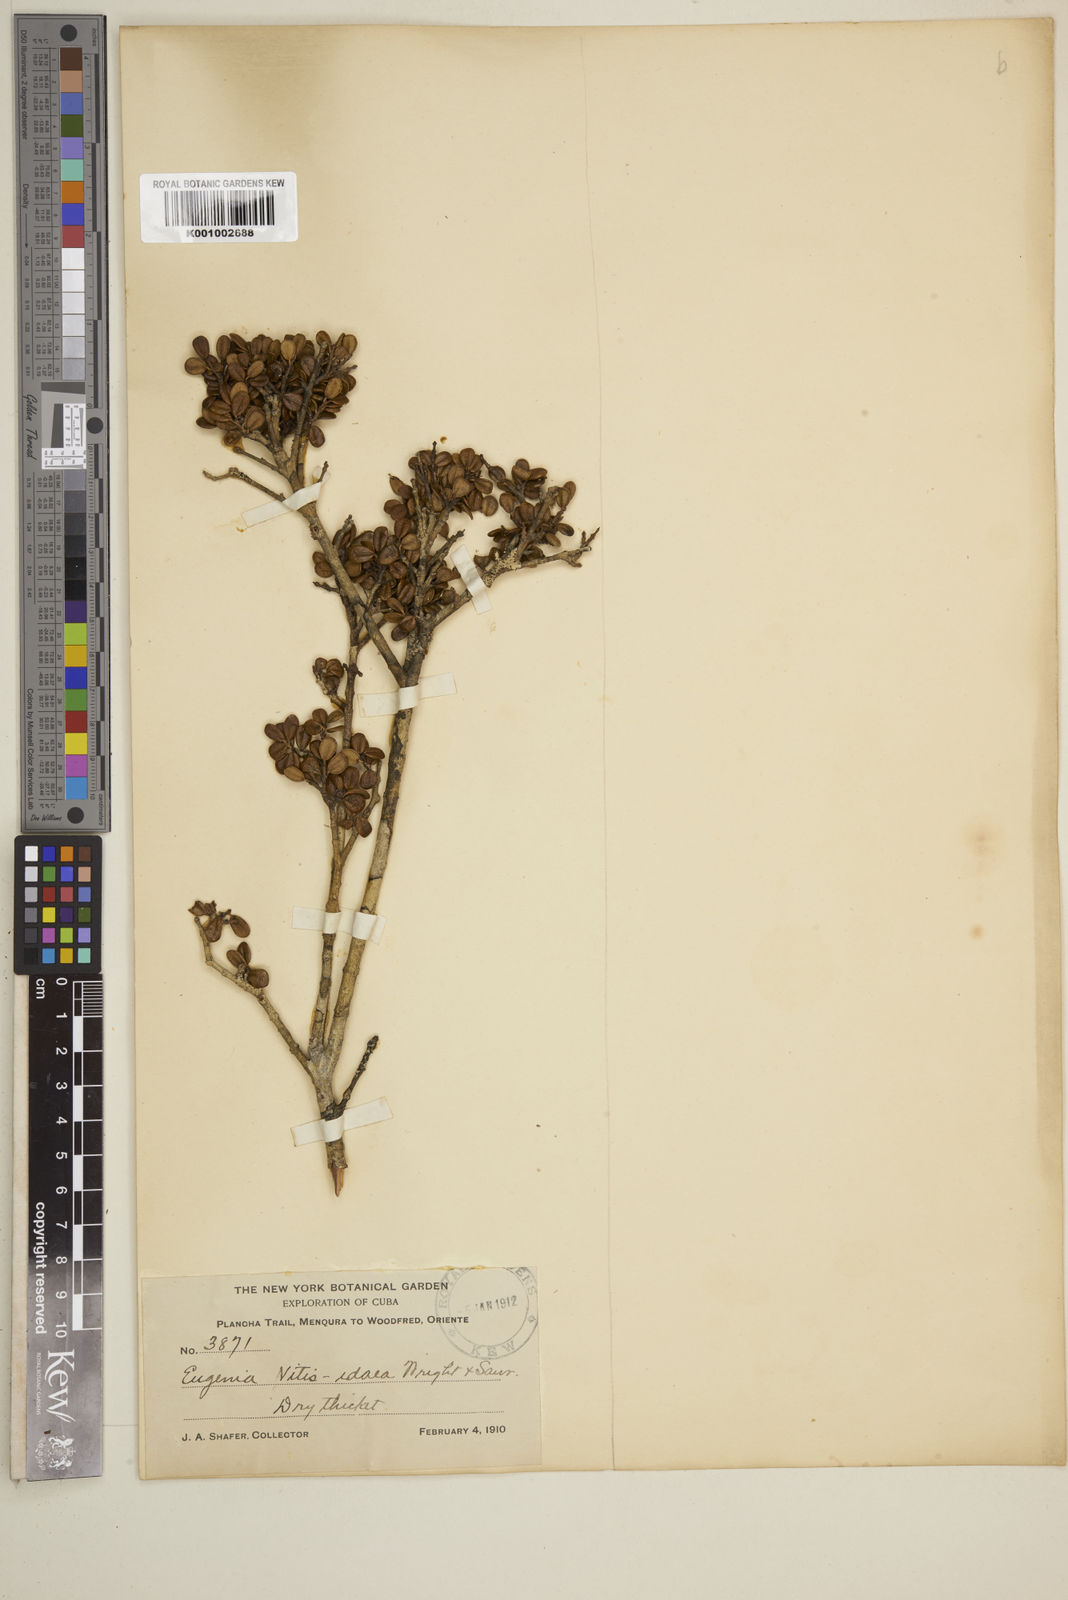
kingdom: Plantae
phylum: Tracheophyta
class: Magnoliopsida
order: Myrtales
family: Myrtaceae
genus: Neomyrtus
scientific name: Neomyrtus pedunculata
